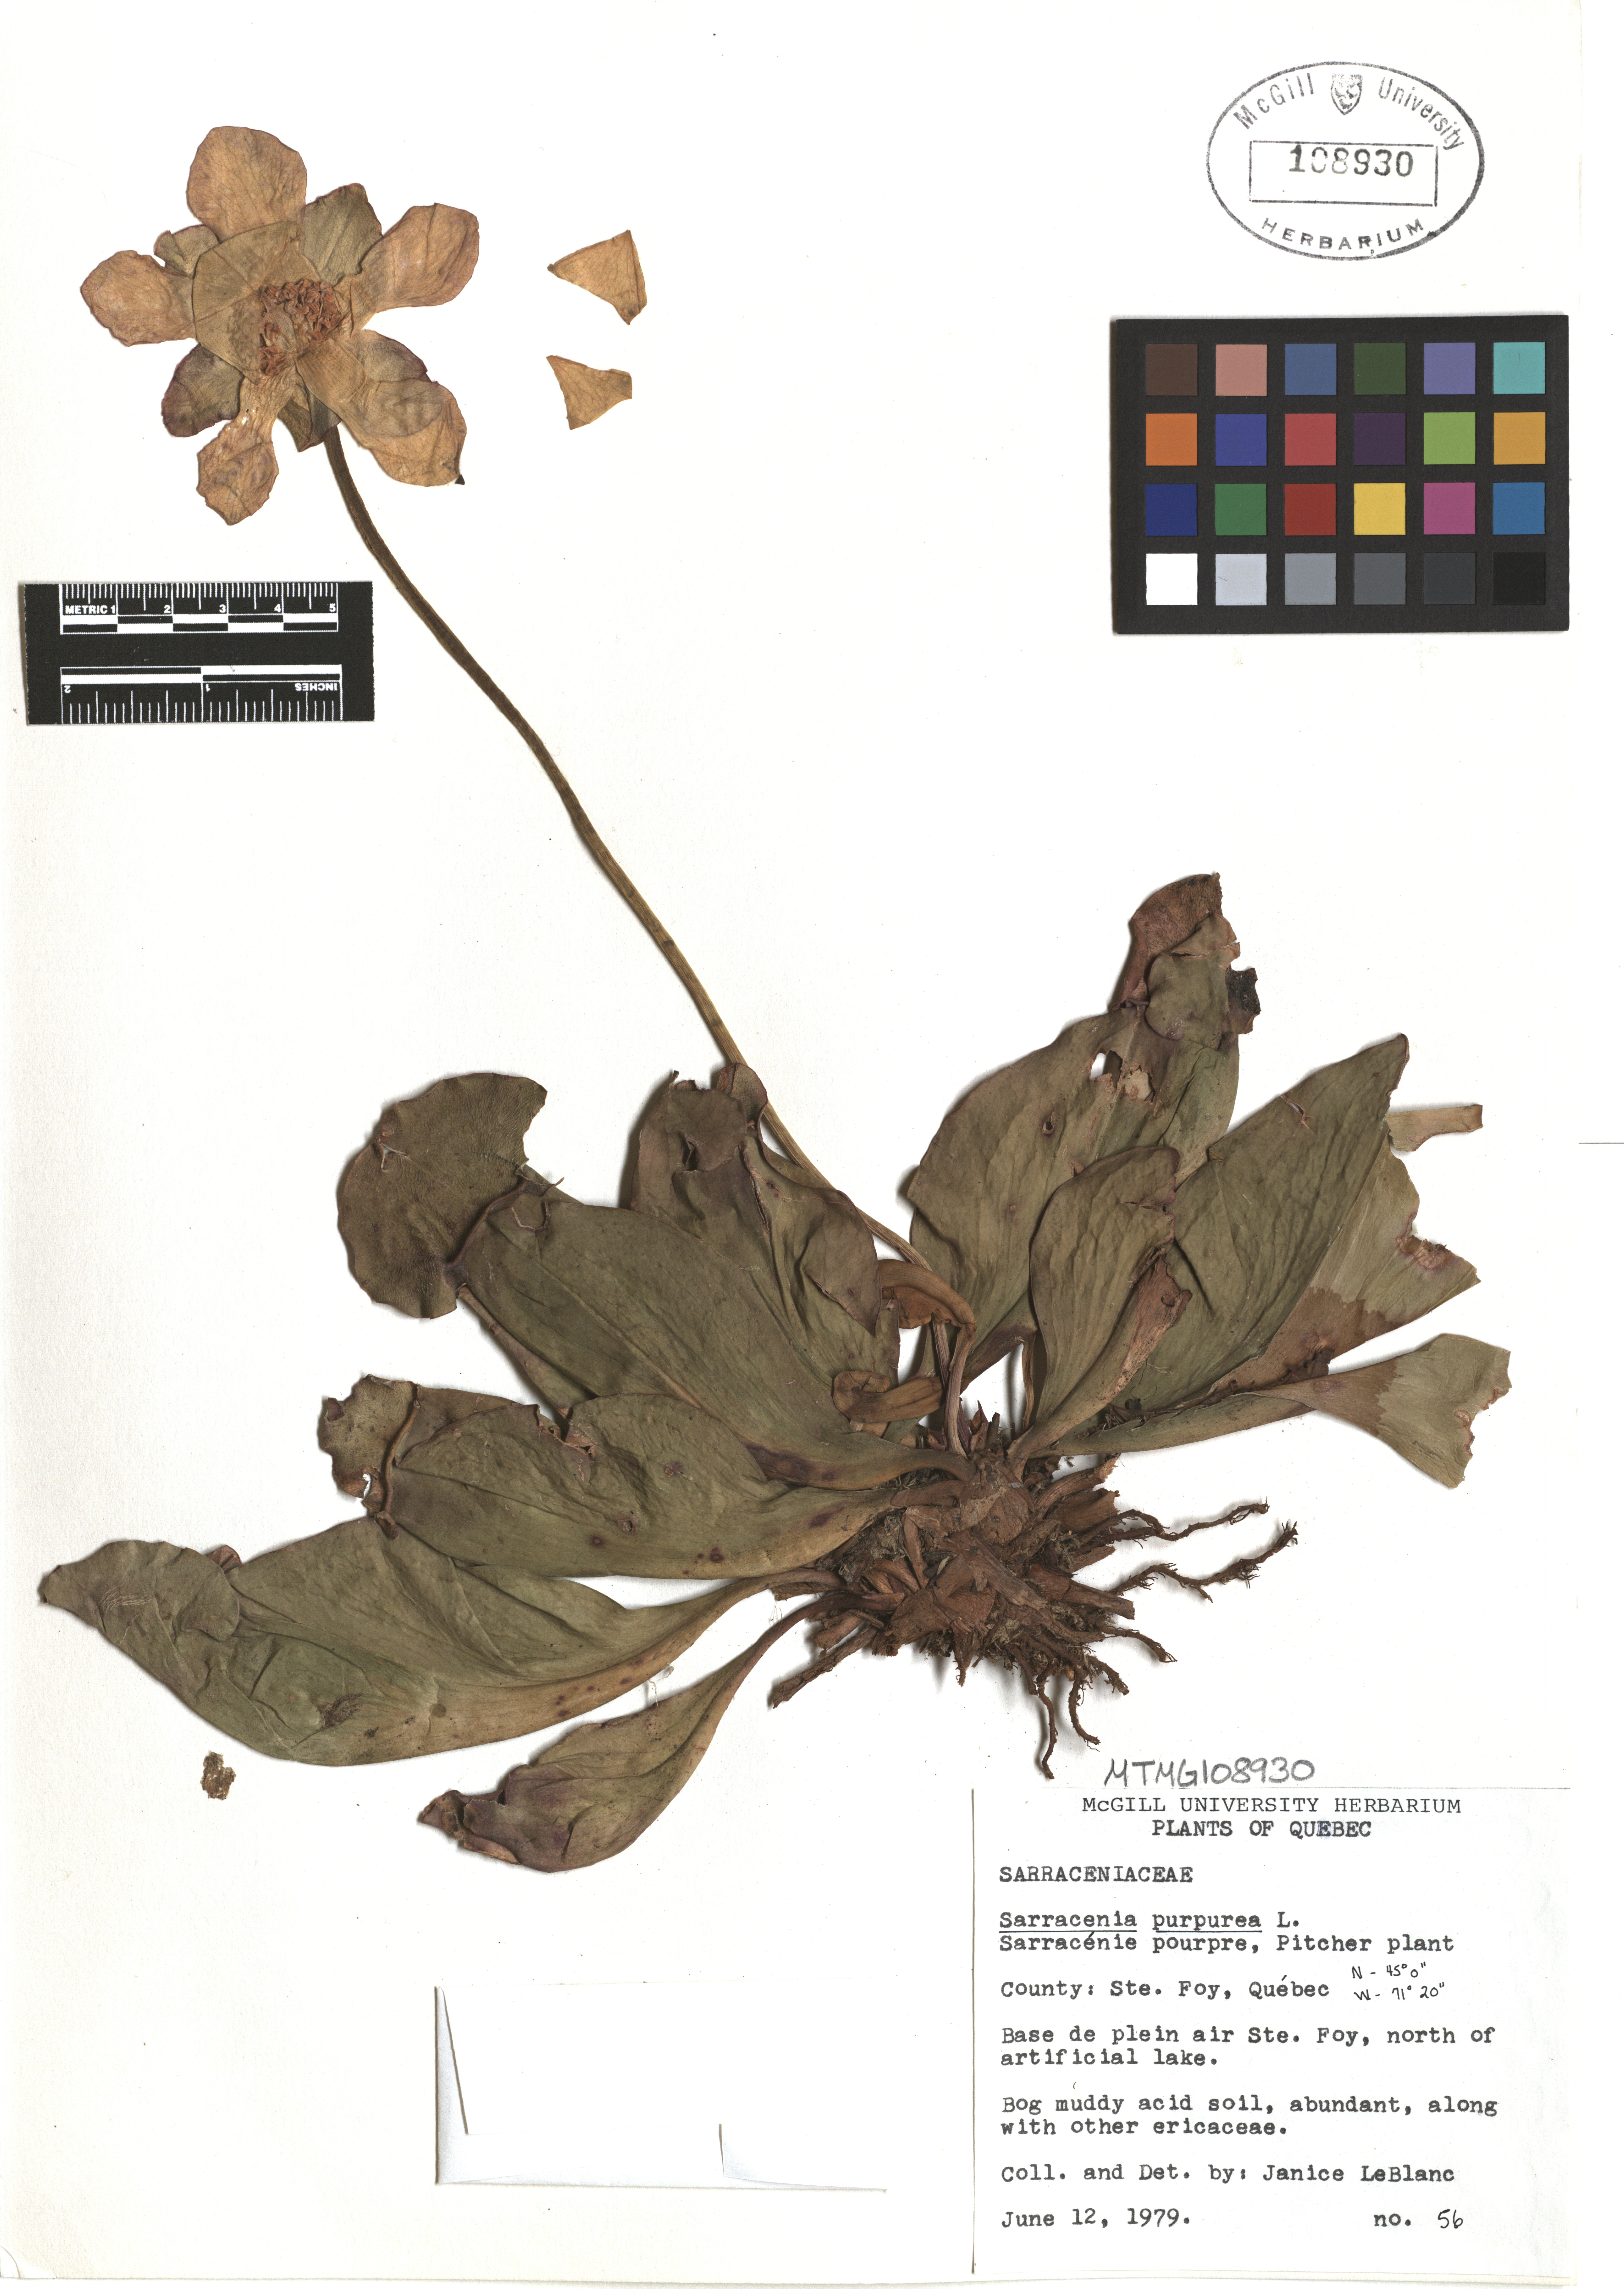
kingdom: Plantae
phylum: Tracheophyta
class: Magnoliopsida
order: Ericales
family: Sarraceniaceae
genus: Sarracenia
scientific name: Sarracenia purpurea
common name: Pitcherplant
